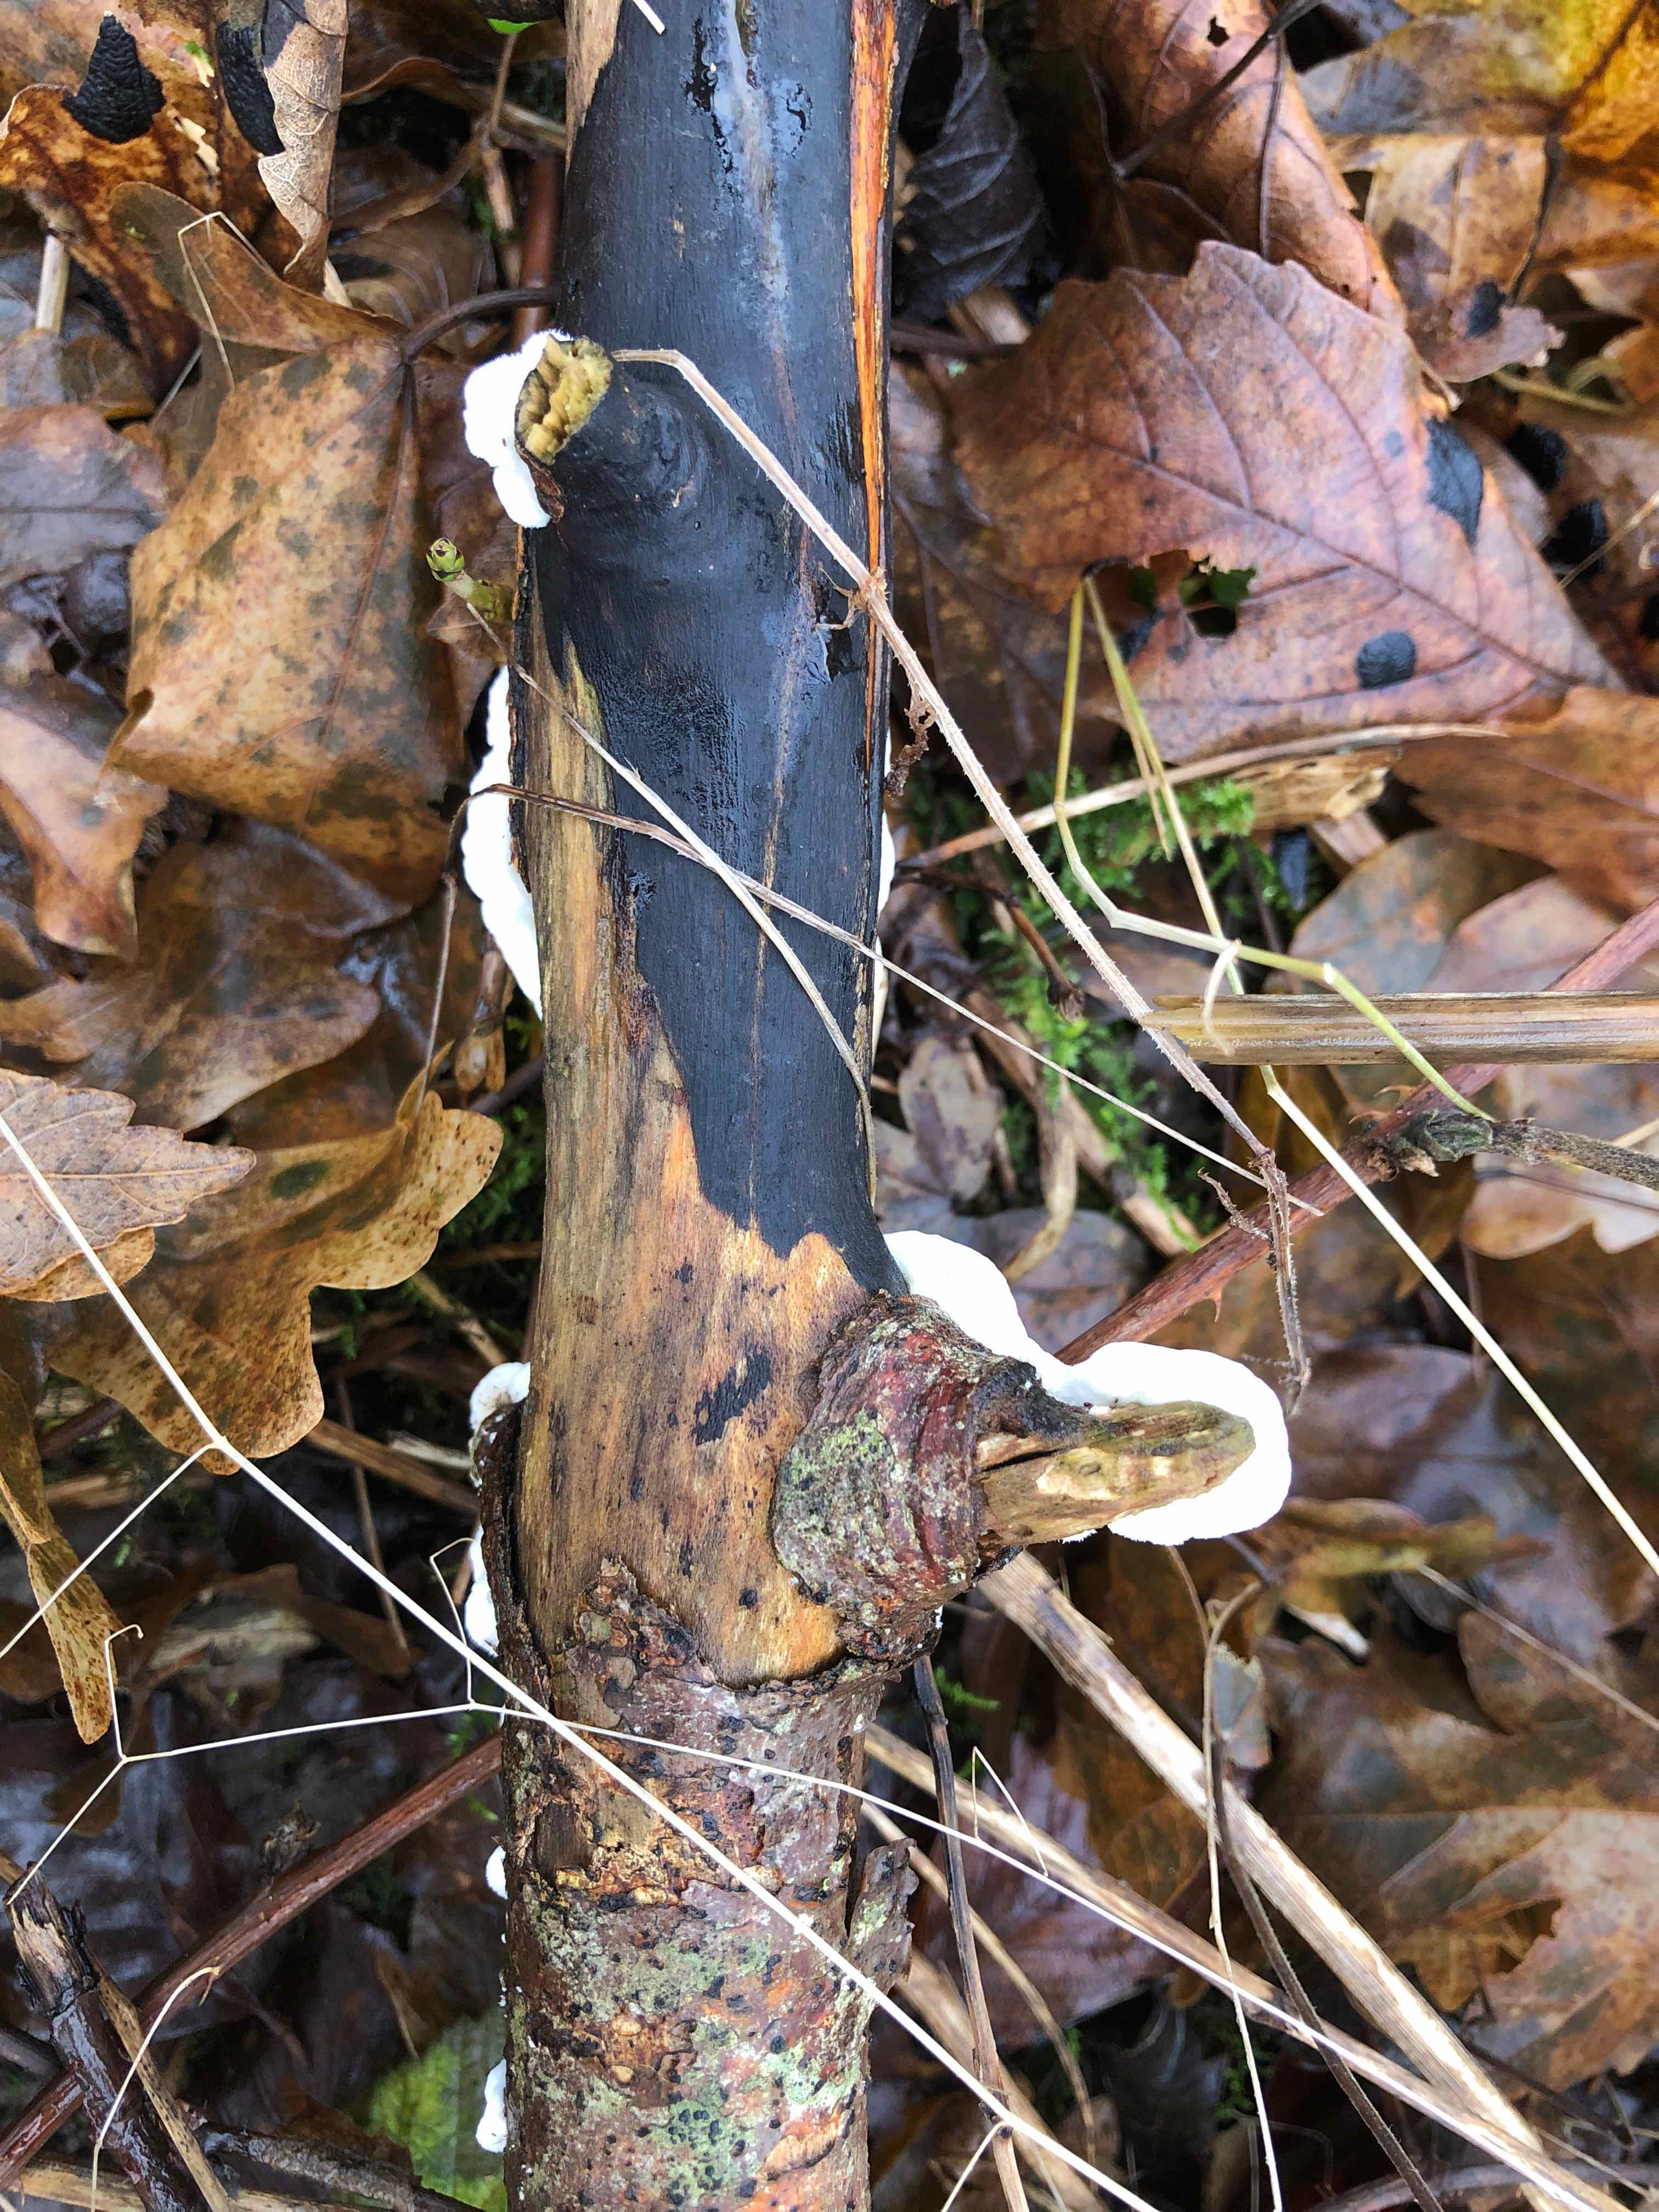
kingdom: Fungi
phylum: Basidiomycota
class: Agaricomycetes
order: Polyporales
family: Irpicaceae
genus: Byssomerulius
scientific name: Byssomerulius corium
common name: læder-åresvamp
